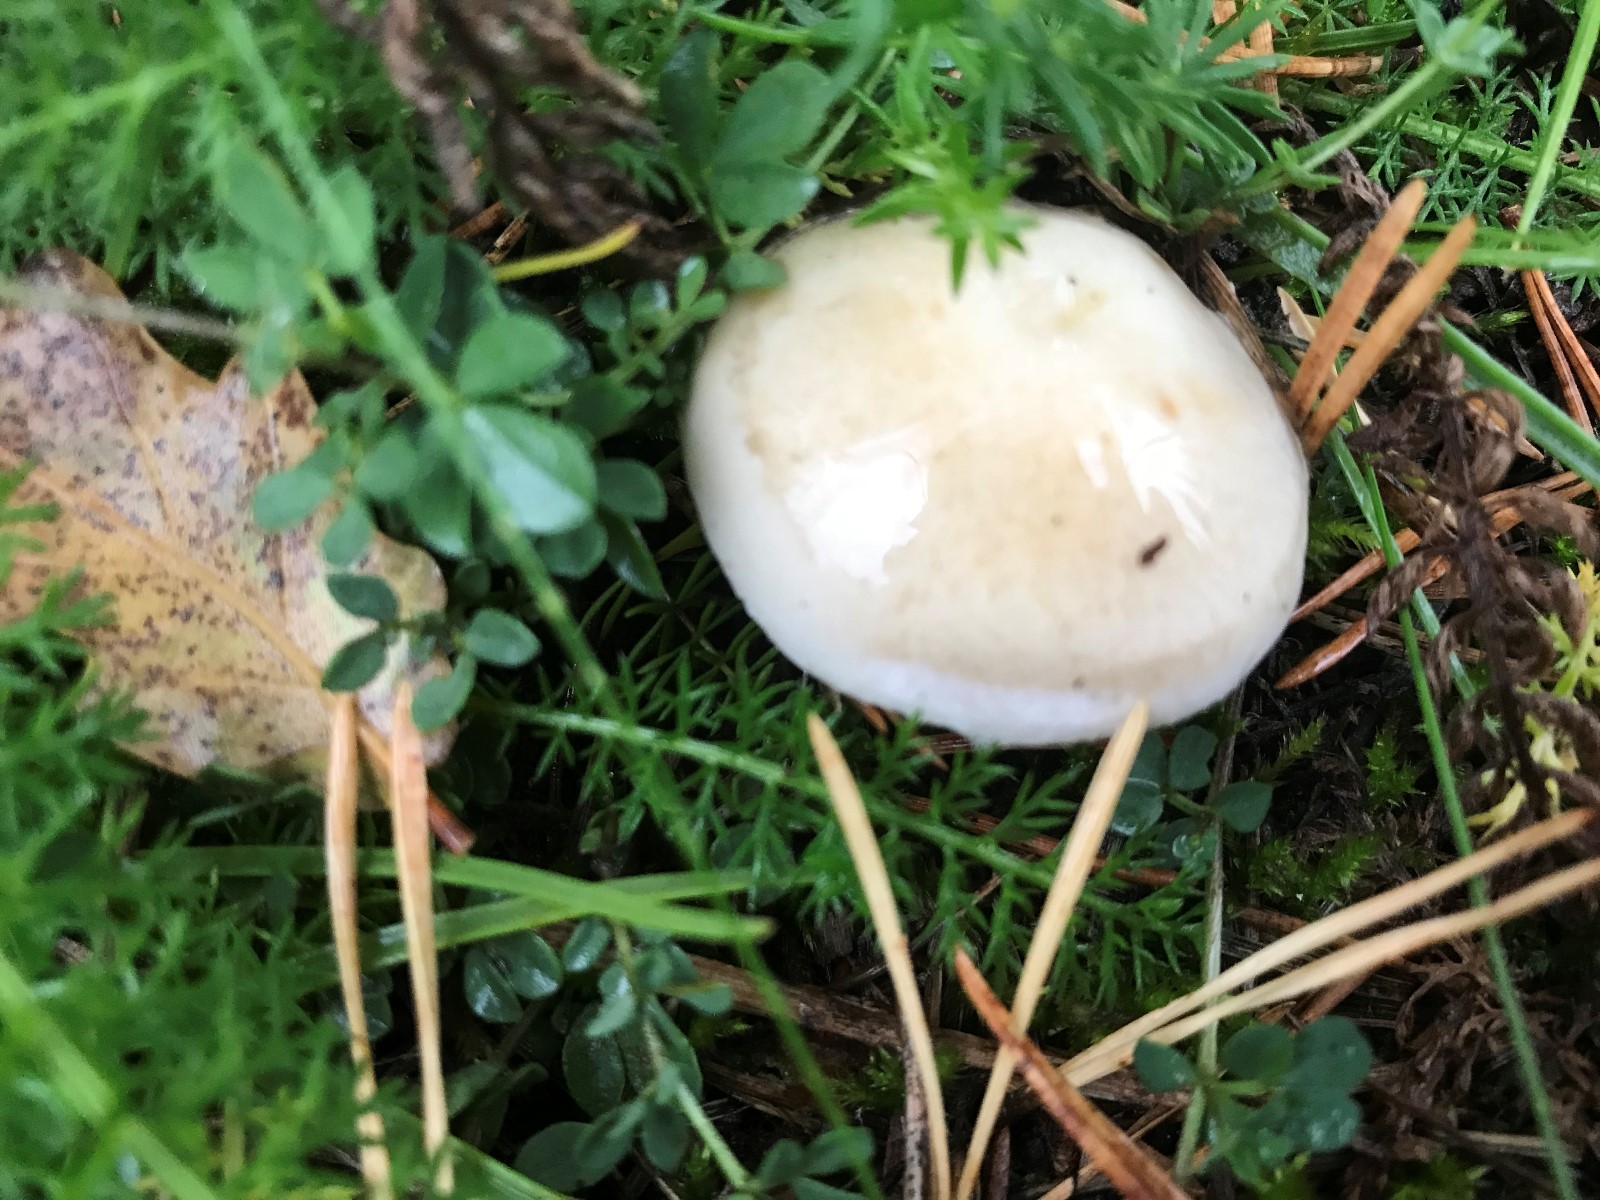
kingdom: Fungi
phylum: Basidiomycota
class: Agaricomycetes
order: Agaricales
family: Hymenogastraceae
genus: Hebeloma
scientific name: Hebeloma
